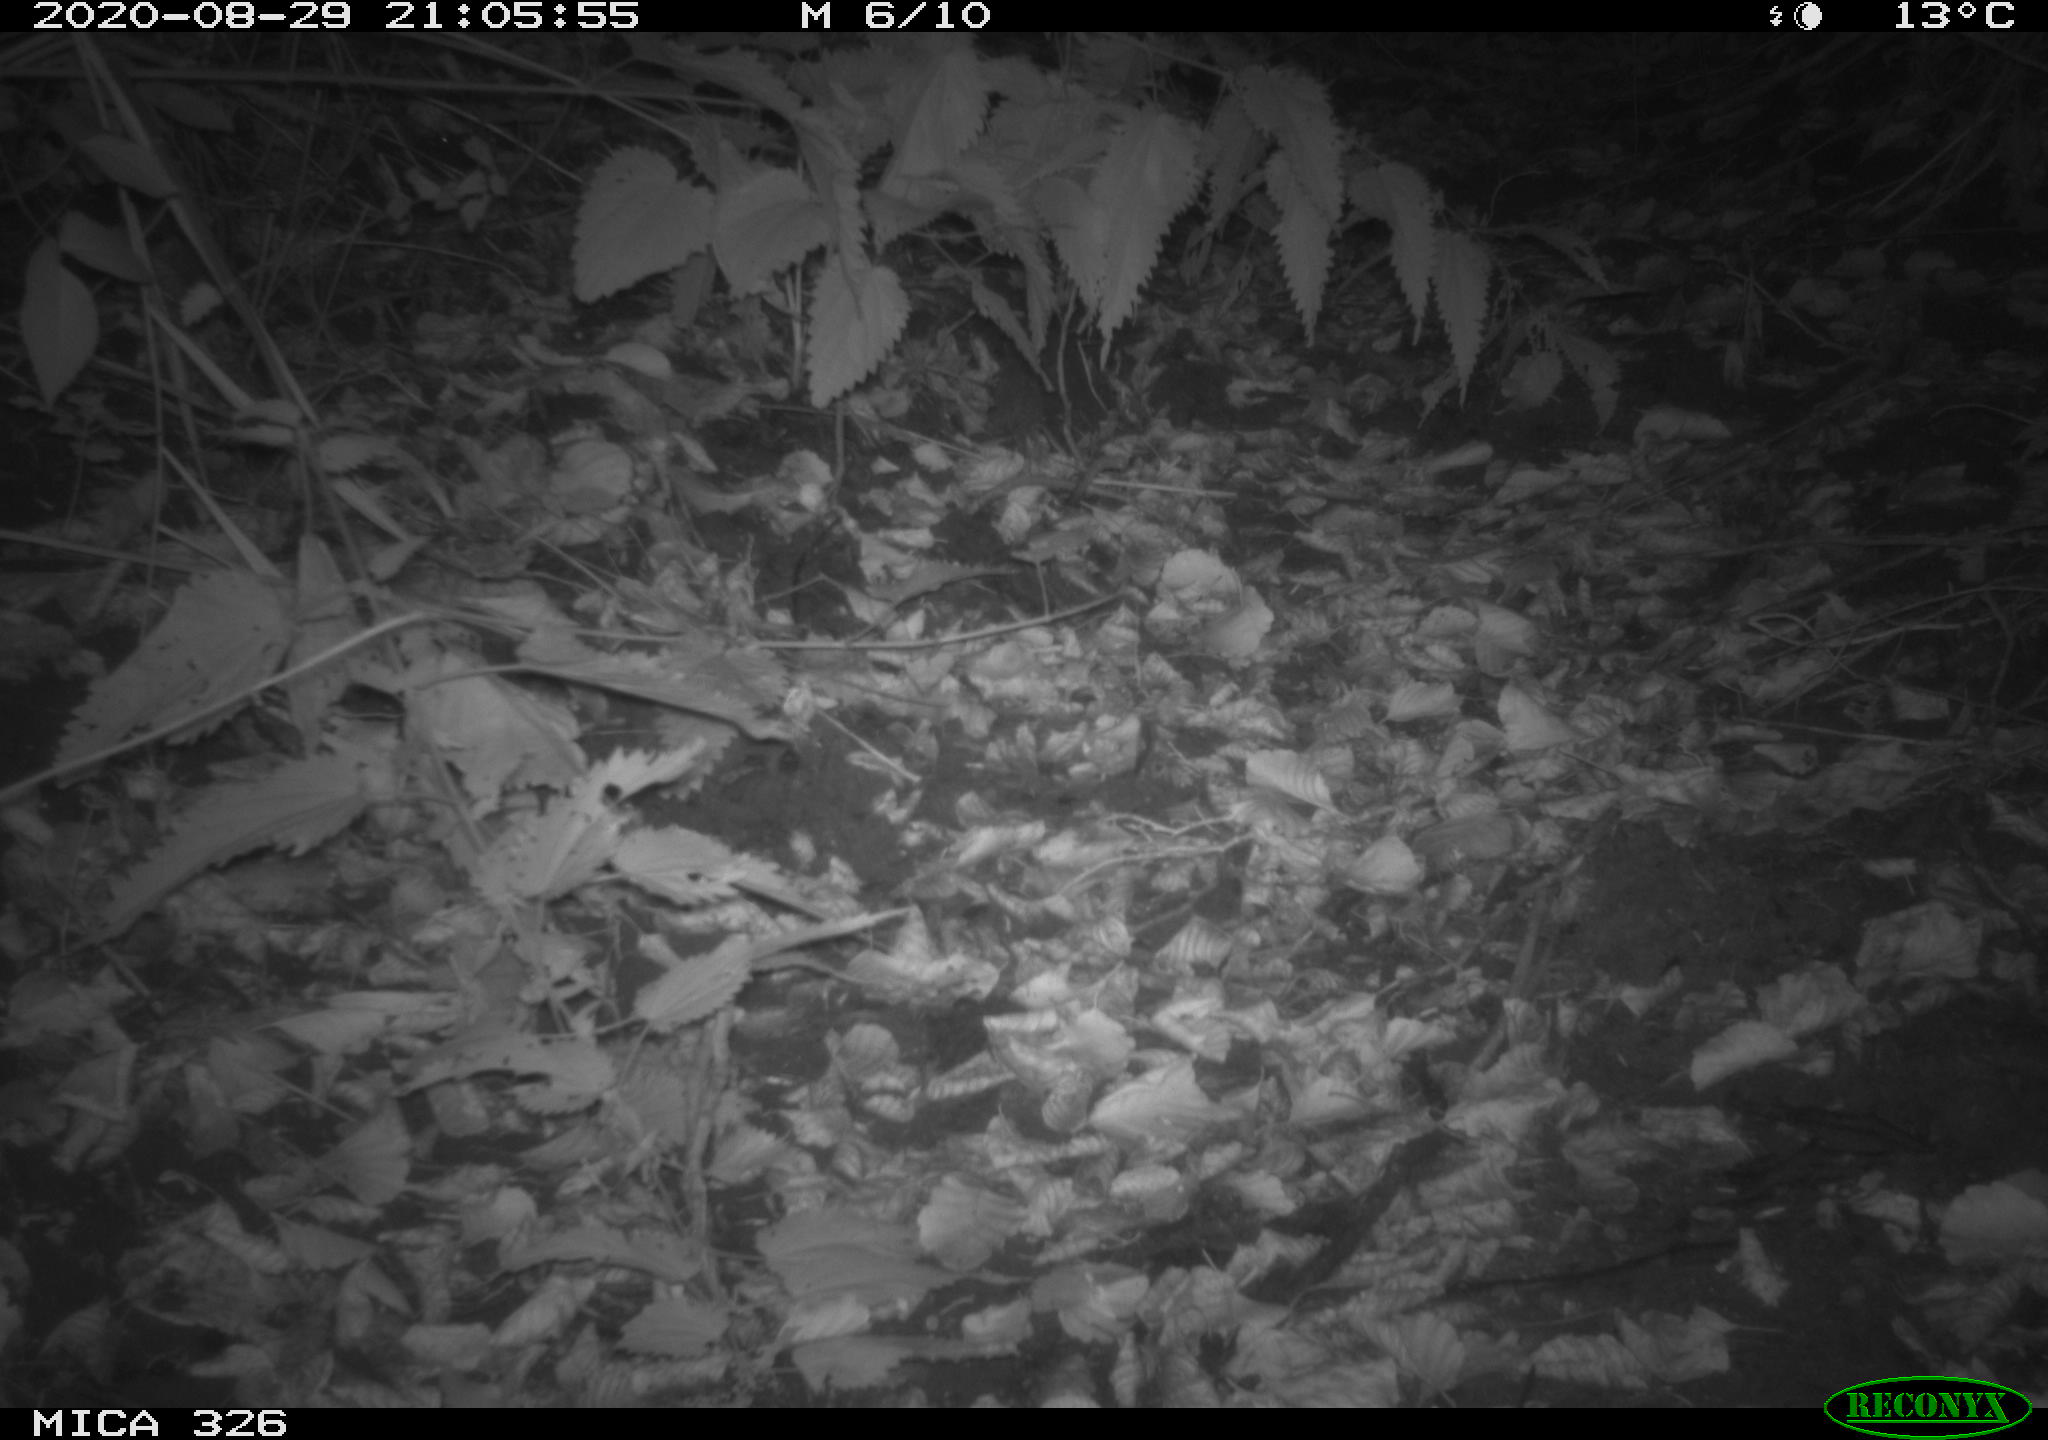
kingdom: Animalia
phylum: Chordata
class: Mammalia
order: Carnivora
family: Mustelidae
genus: Martes
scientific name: Martes foina
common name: Beech marten
